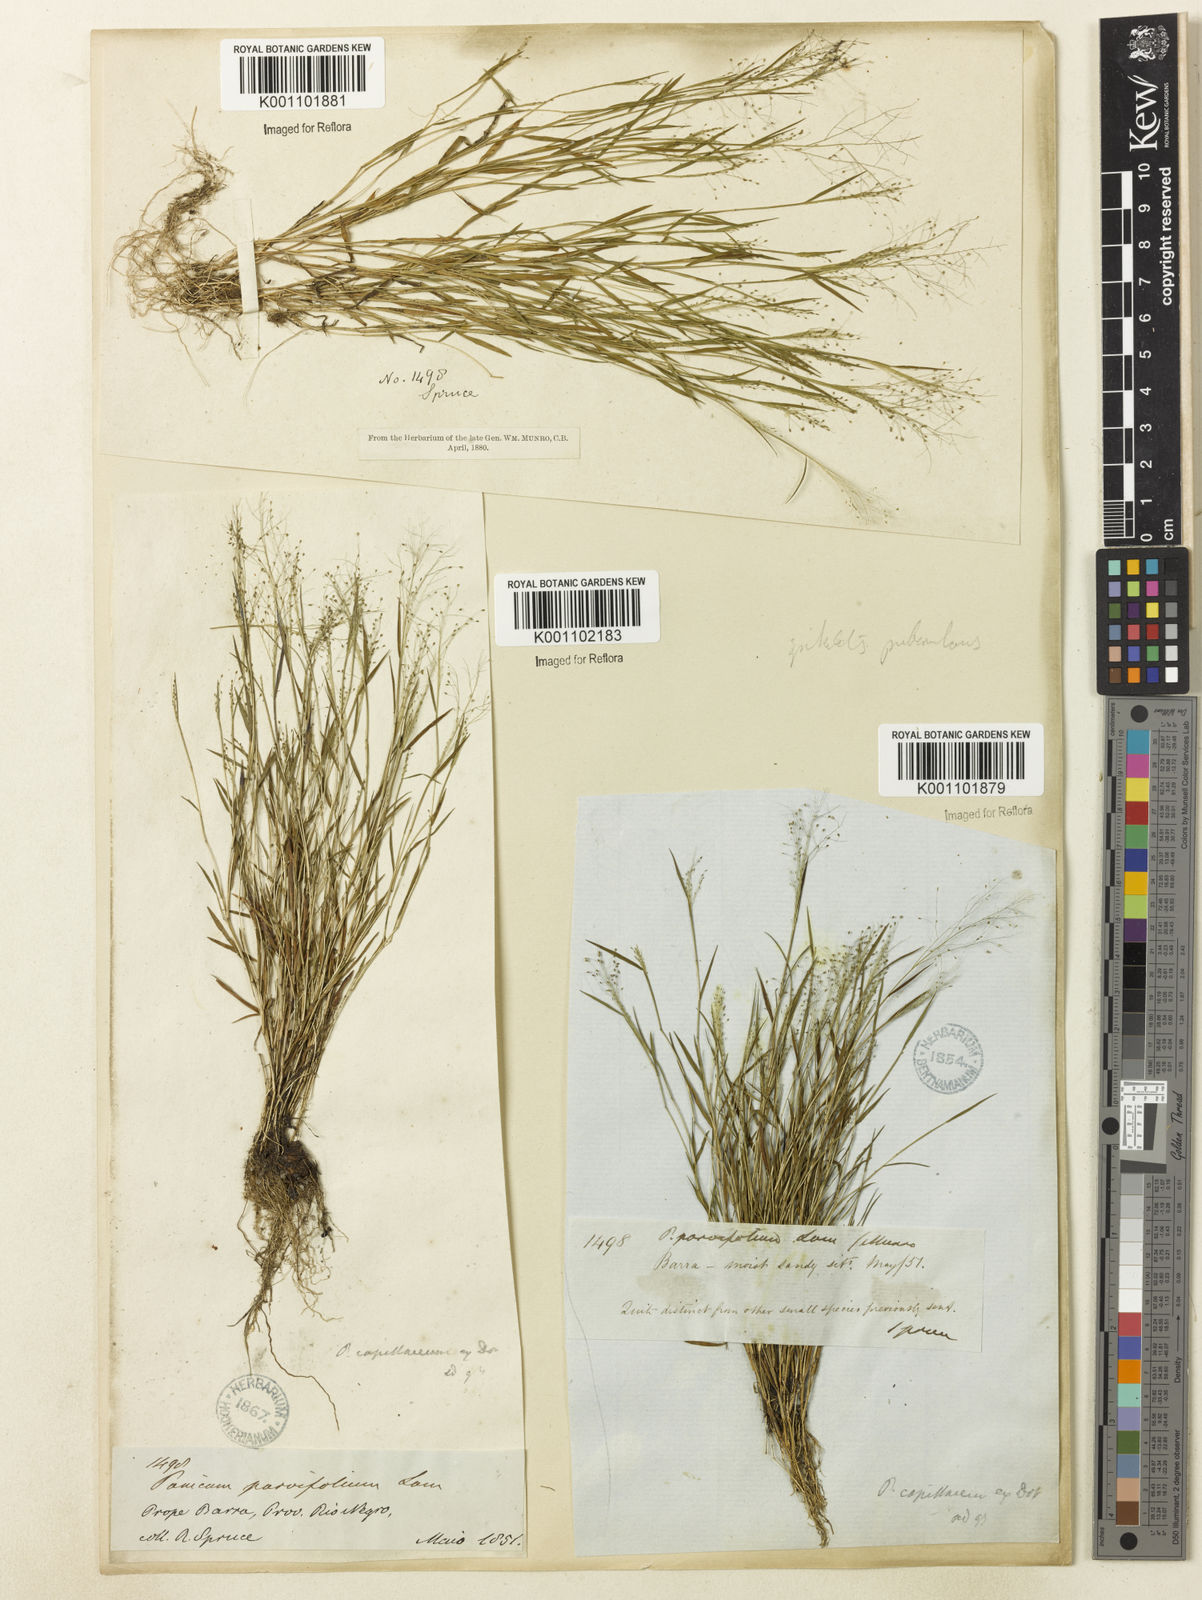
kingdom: Plantae
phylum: Tracheophyta
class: Liliopsida
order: Poales
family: Poaceae
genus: Trichanthecium
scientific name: Trichanthecium polycomum
